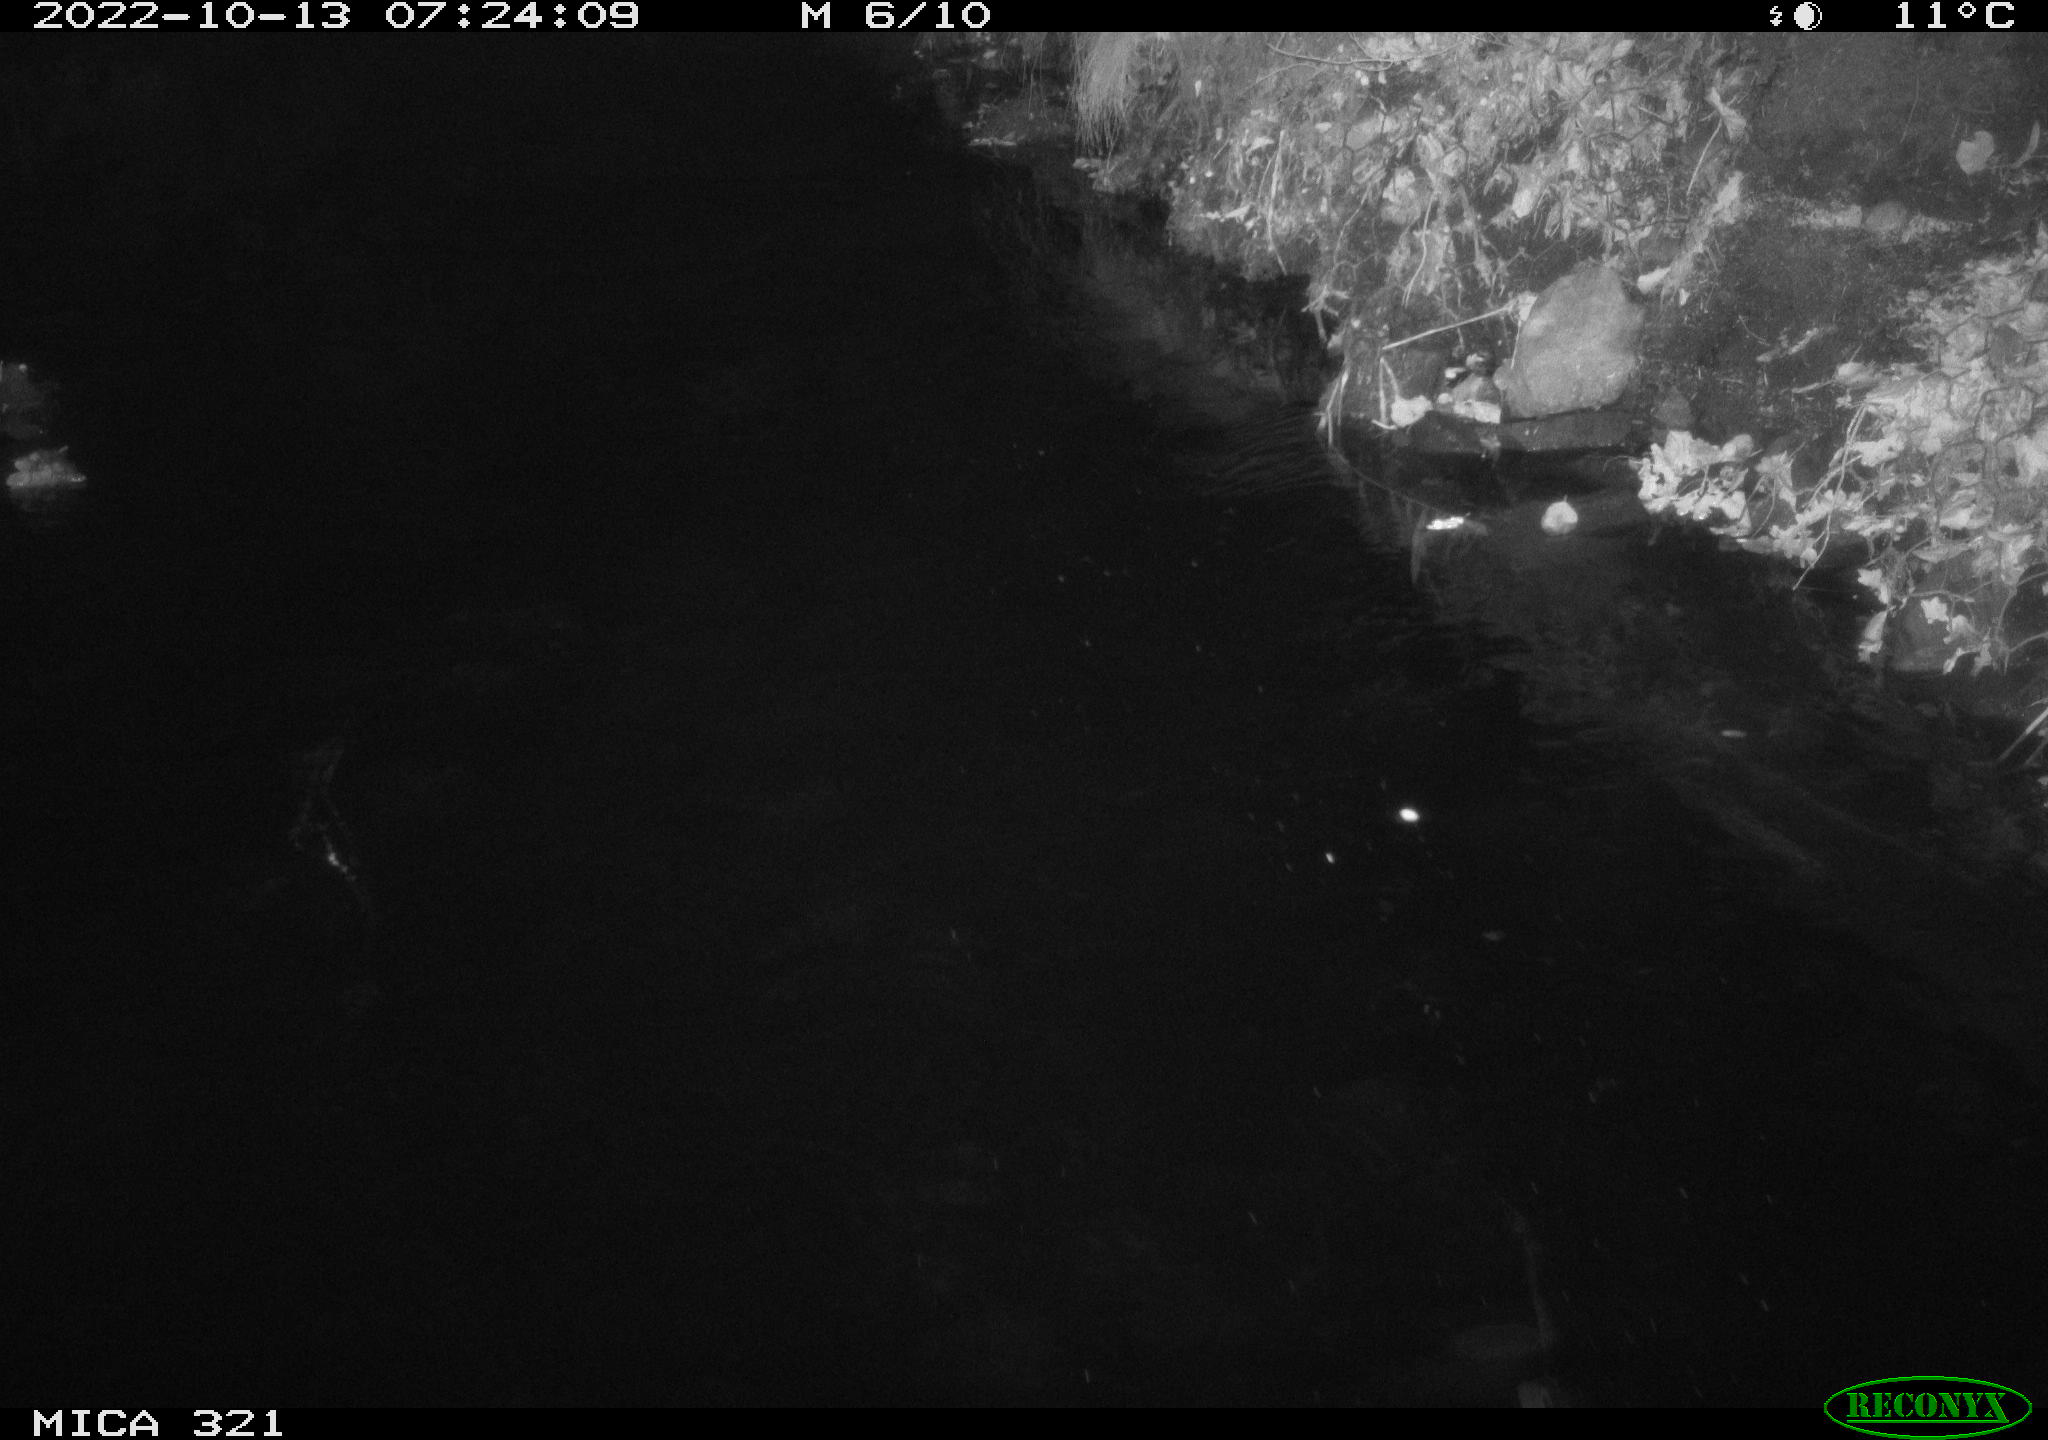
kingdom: Animalia
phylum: Chordata
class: Aves
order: Anseriformes
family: Anatidae
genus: Anas
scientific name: Anas
